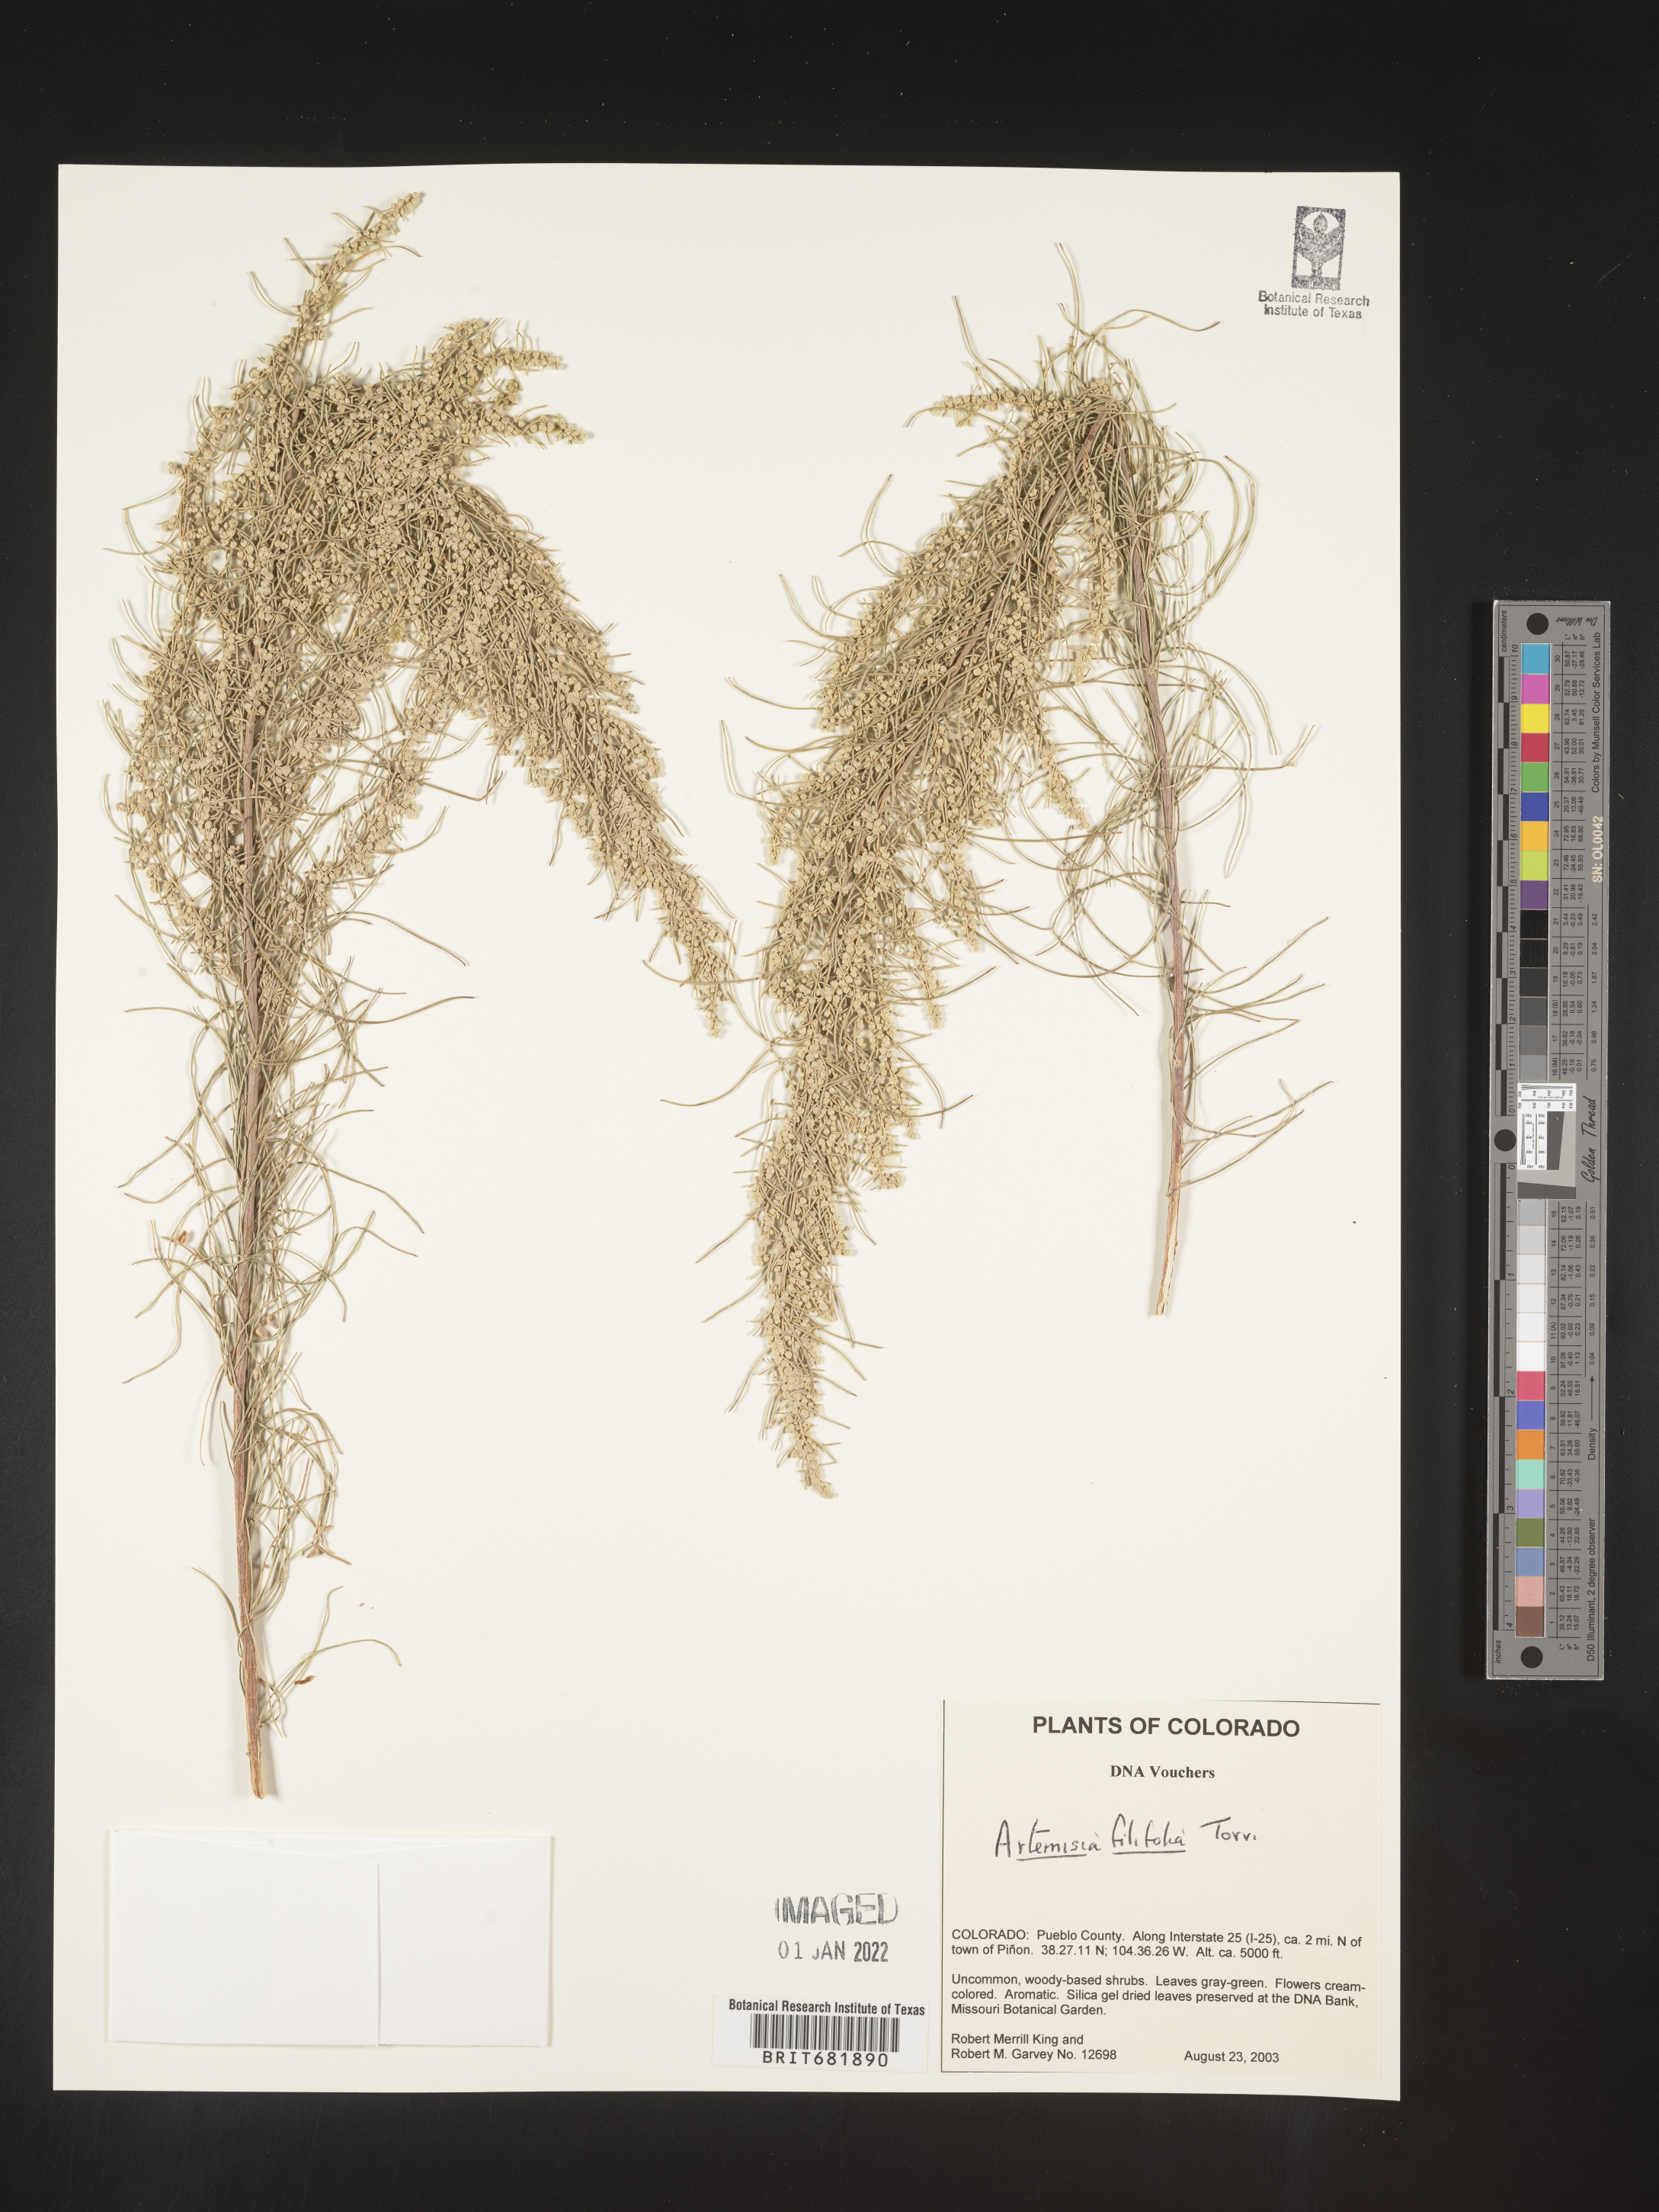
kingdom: Plantae
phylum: Tracheophyta
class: Magnoliopsida
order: Asterales
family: Asteraceae
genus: Artemisia
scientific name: Artemisia filifolia
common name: Sand-sage
